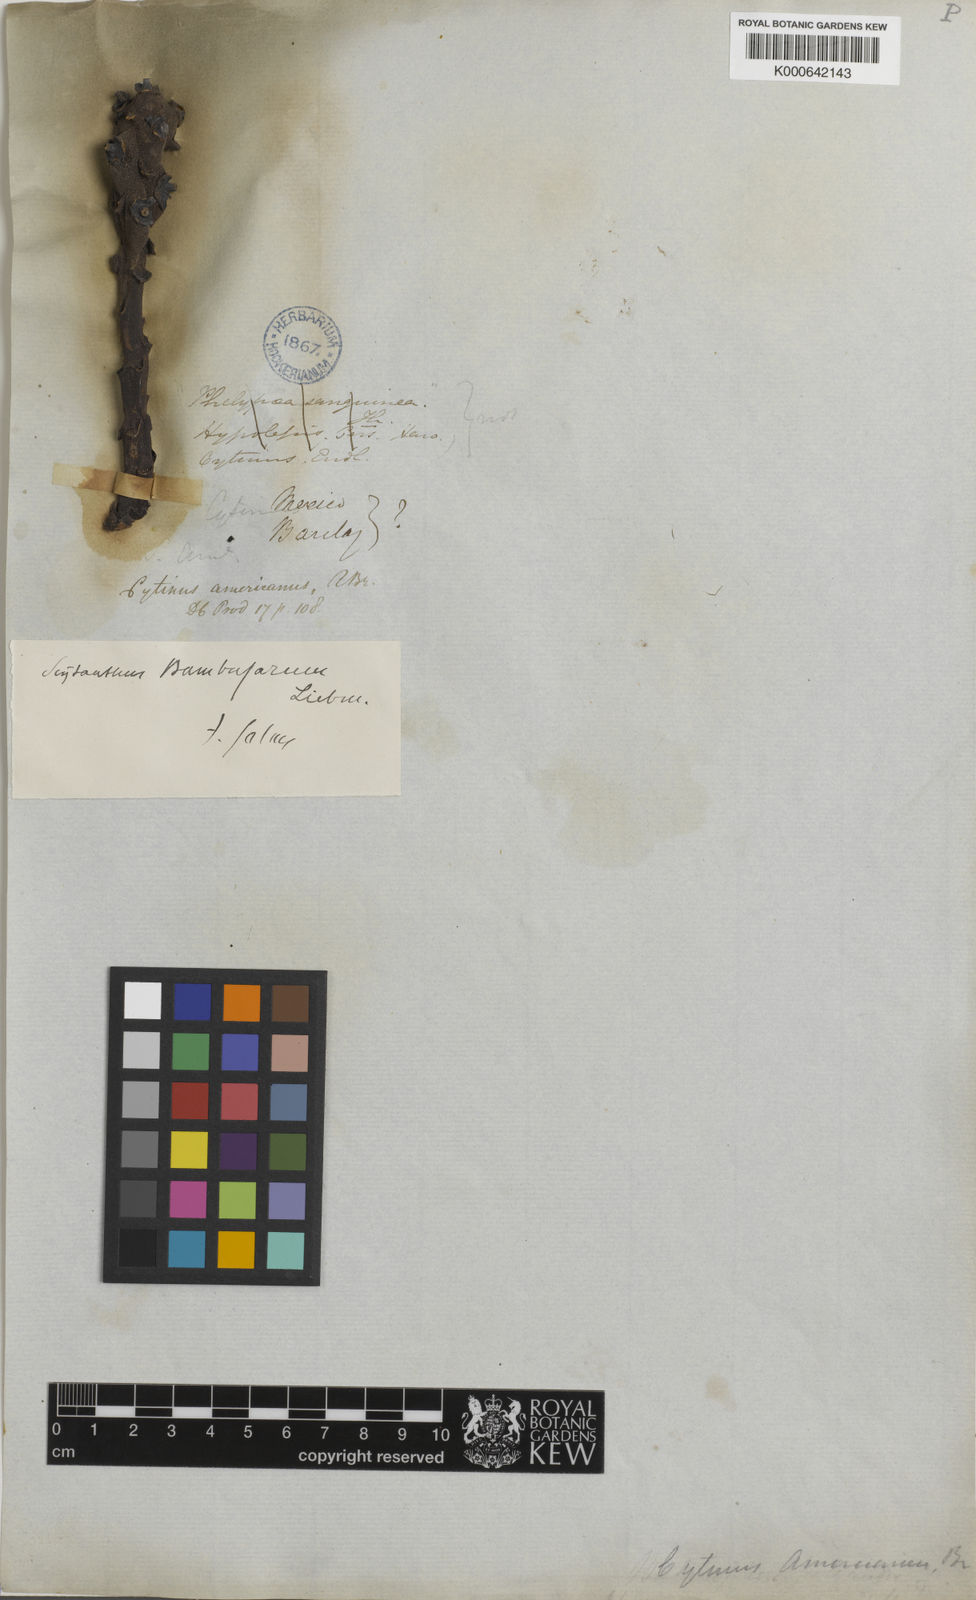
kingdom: Plantae
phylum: Tracheophyta
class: Magnoliopsida
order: Malvales
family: Cytinaceae
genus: Bdallophytum
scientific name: Bdallophytum
